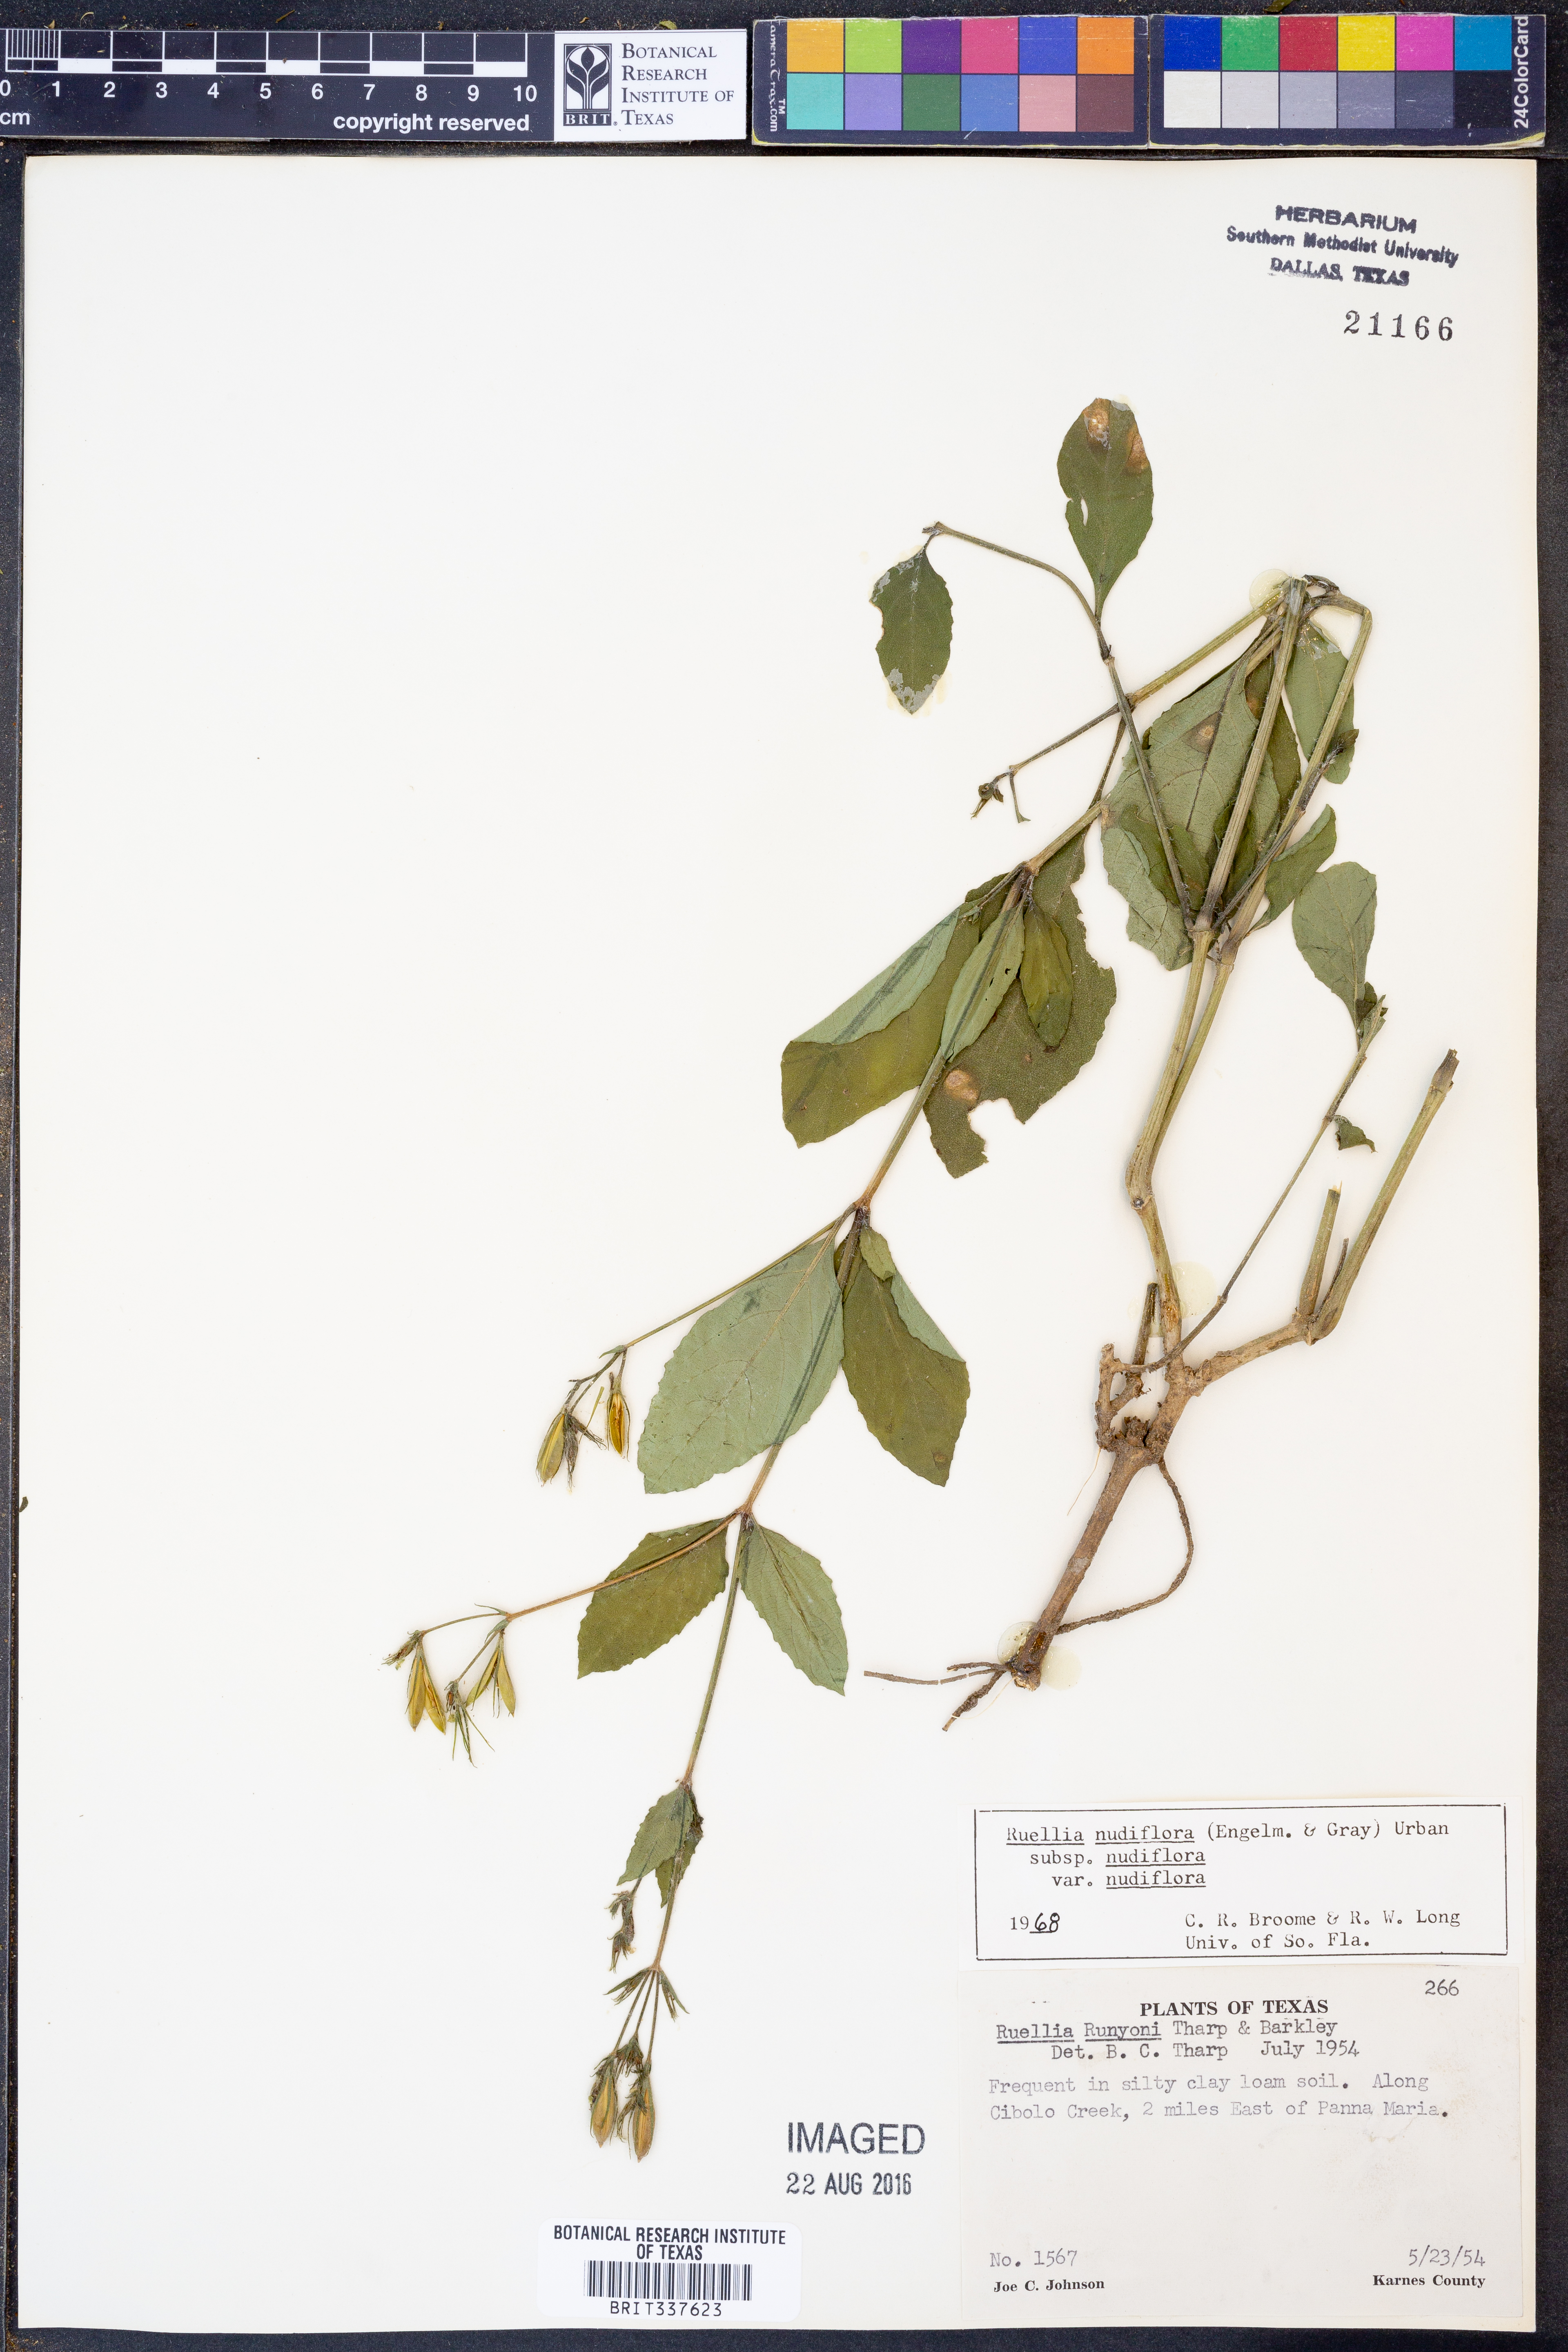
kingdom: Plantae
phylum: Tracheophyta
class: Magnoliopsida
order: Lamiales
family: Acanthaceae
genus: Ruellia
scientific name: Ruellia ciliatiflora
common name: Hairyflower wild petunia
